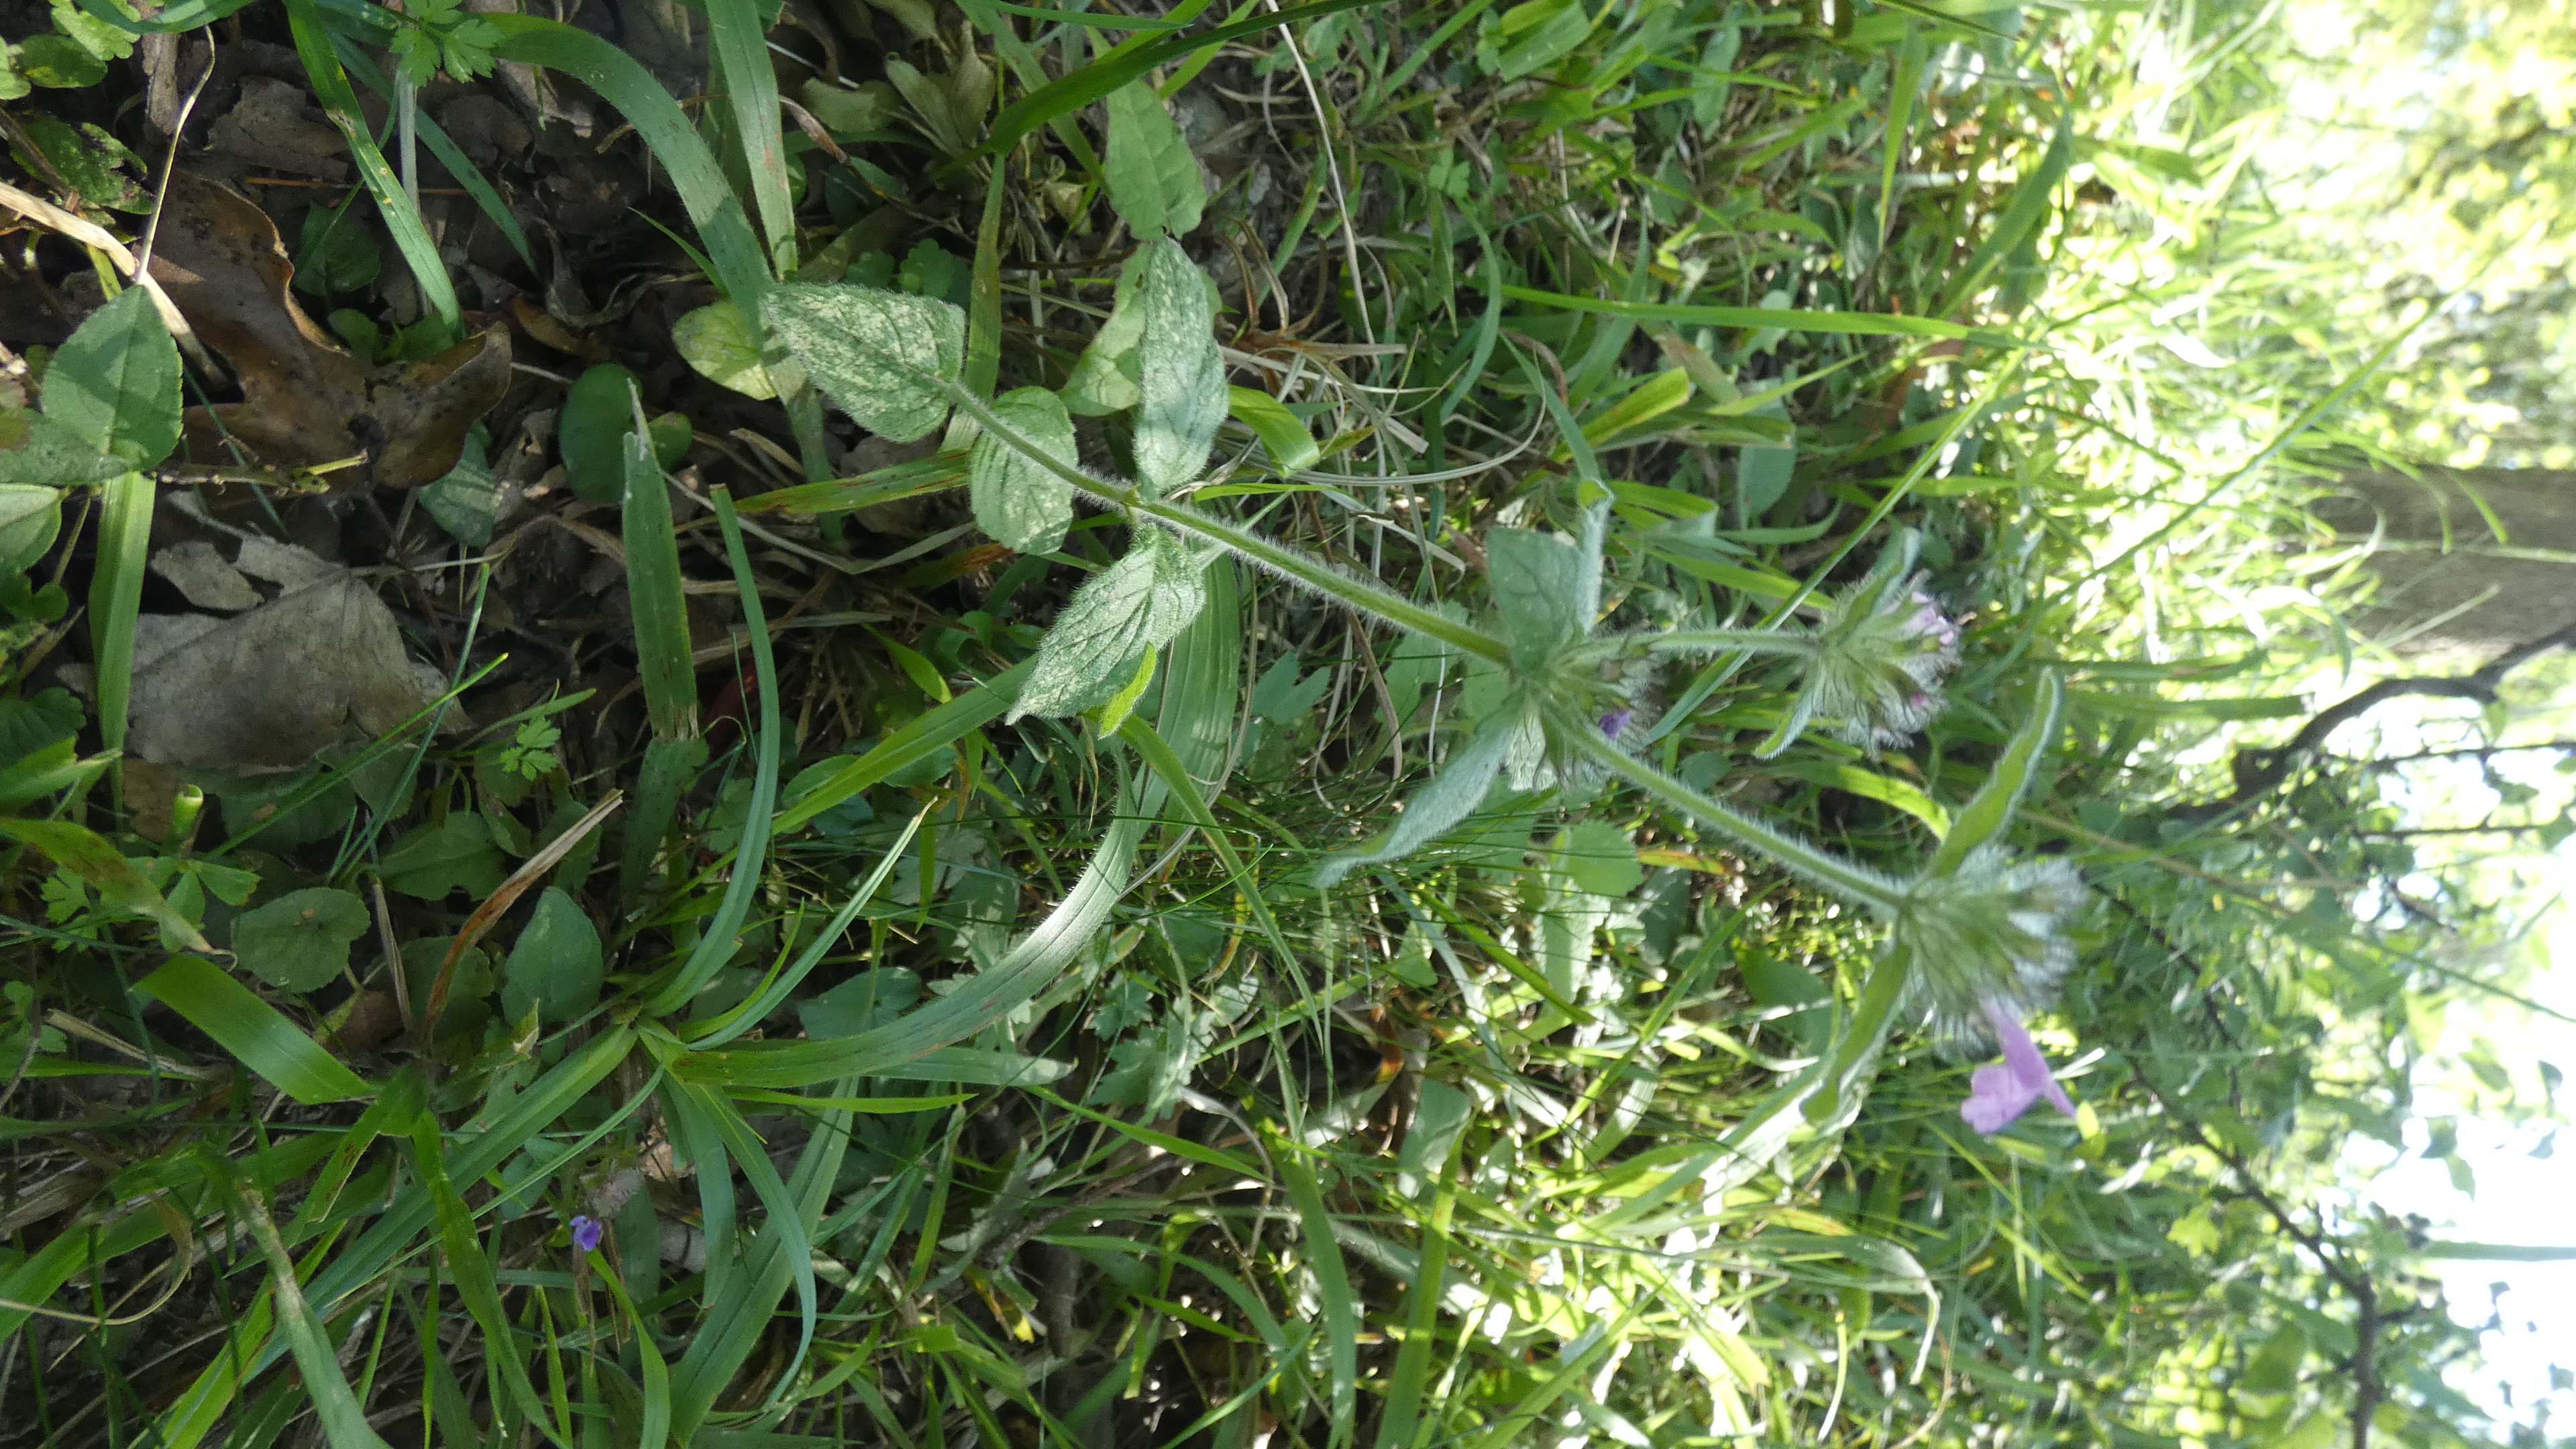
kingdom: Plantae
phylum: Tracheophyta
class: Magnoliopsida
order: Lamiales
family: Lamiaceae
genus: Clinopodium
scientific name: Clinopodium vulgare
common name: Kransbørste
